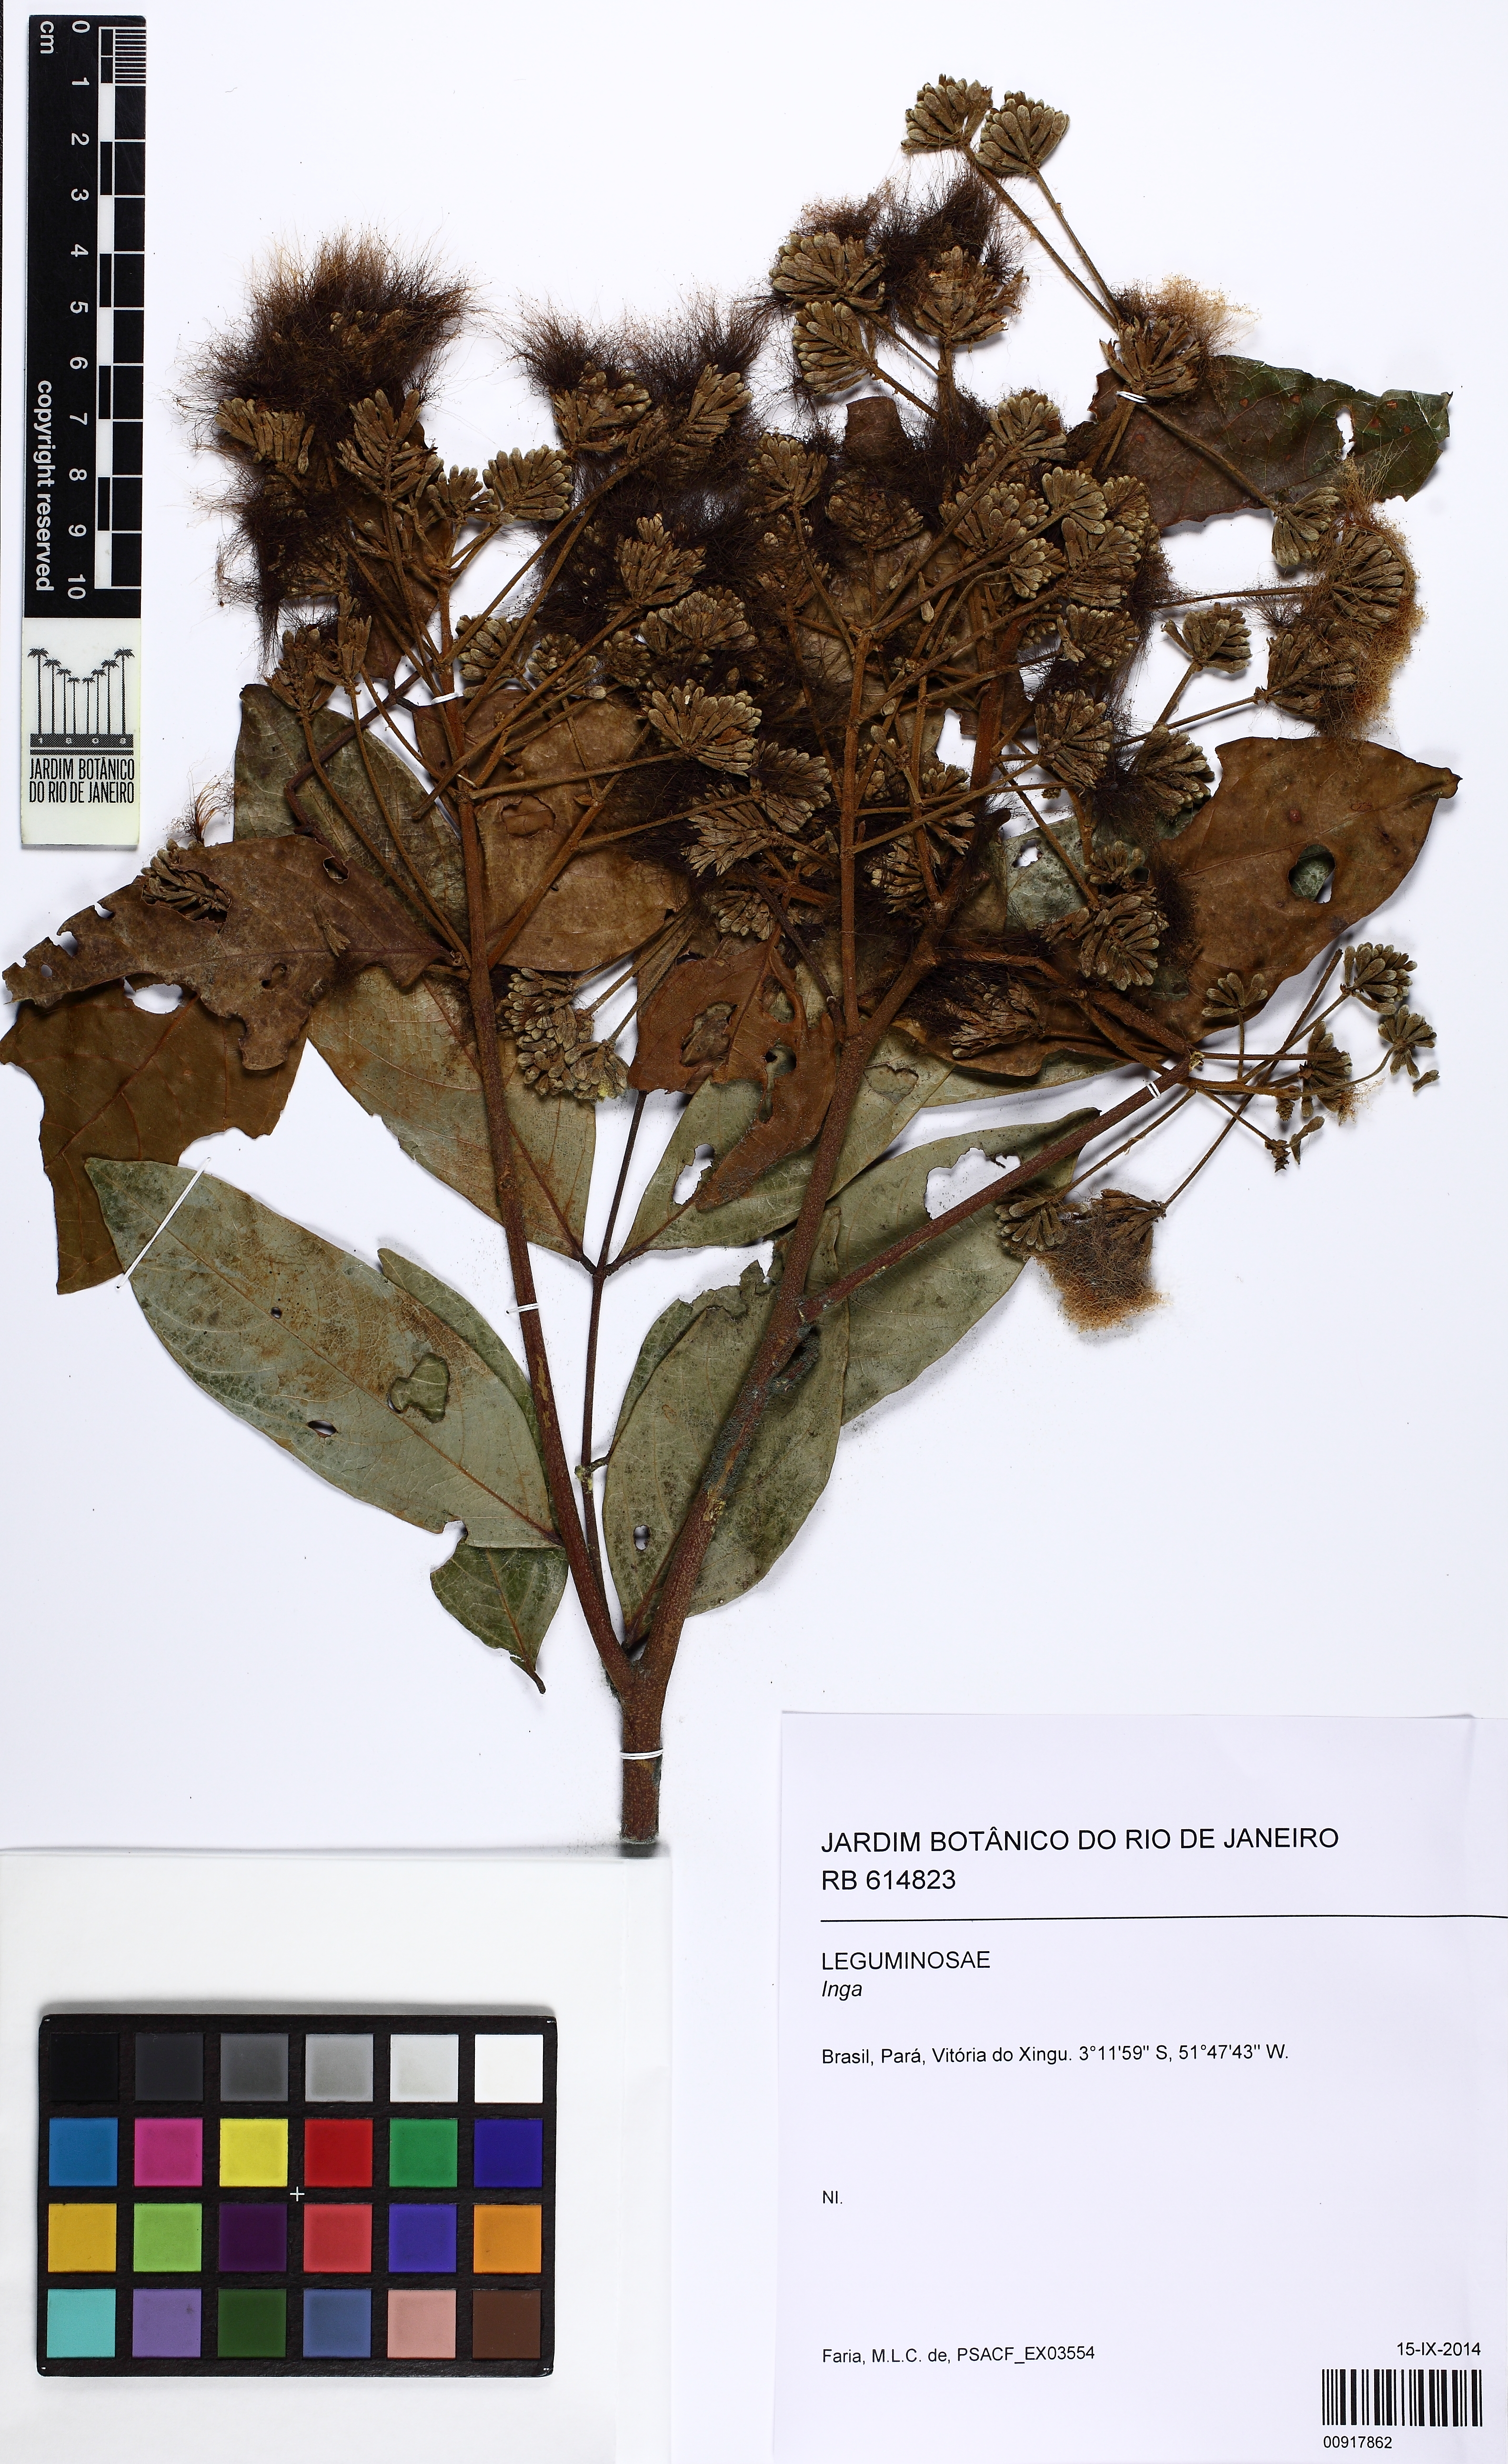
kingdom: Plantae
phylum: Tracheophyta
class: Magnoliopsida
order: Fabales
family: Fabaceae
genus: Inga
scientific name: Inga
